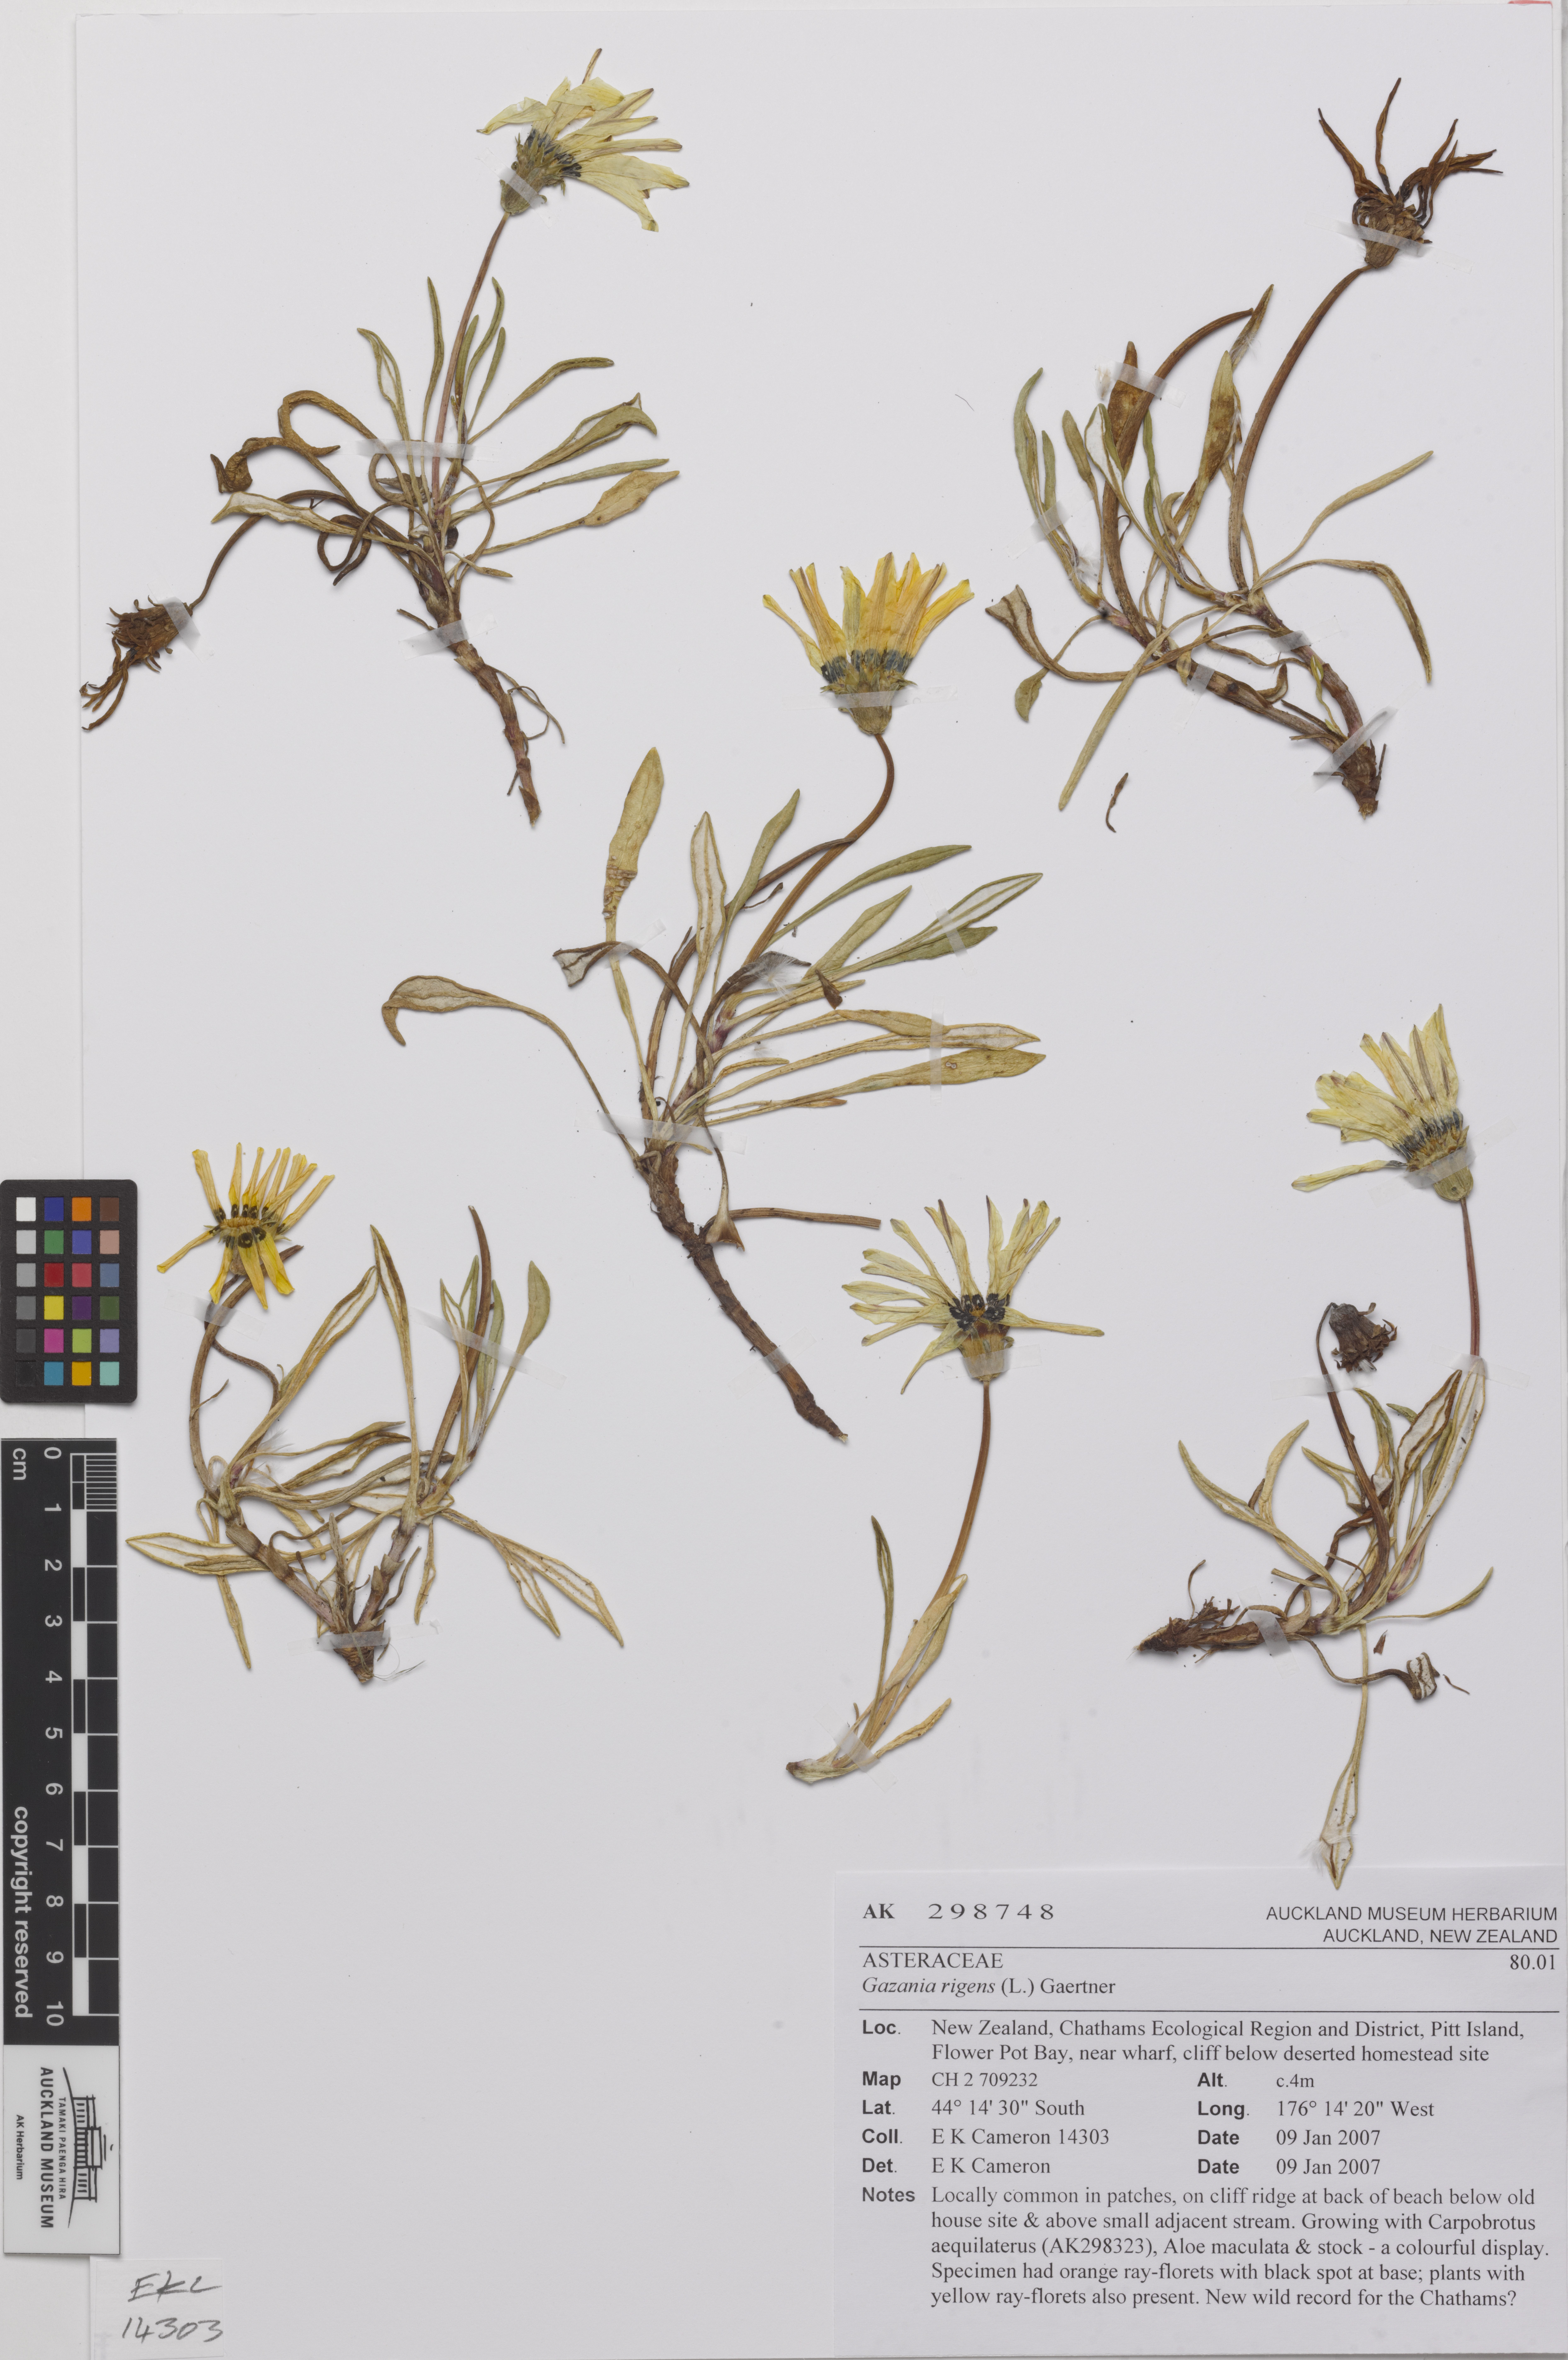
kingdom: Plantae
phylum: Tracheophyta
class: Magnoliopsida
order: Asterales
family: Asteraceae
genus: Gazania
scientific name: Gazania rigens
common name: Treasureflower
